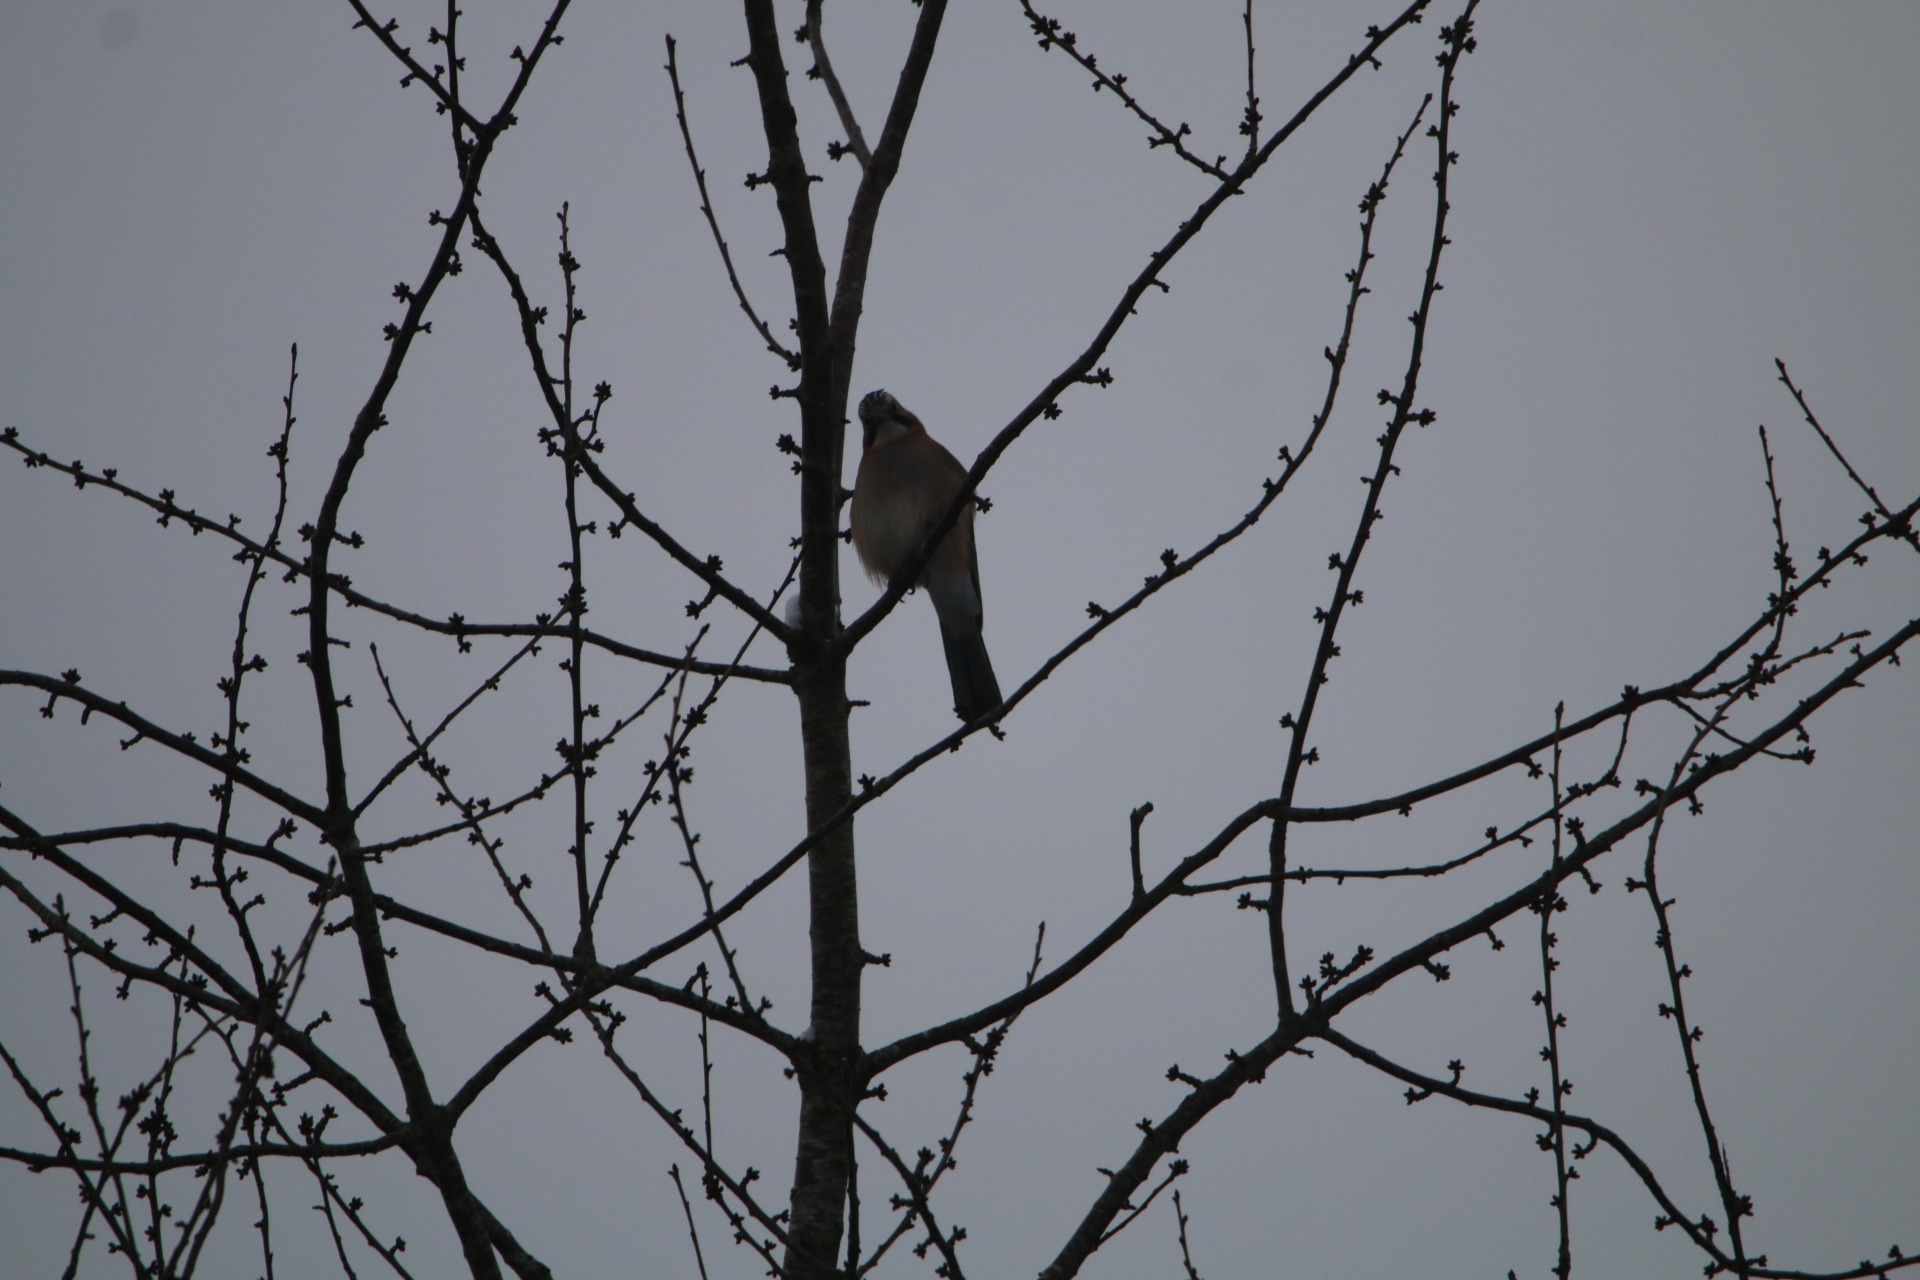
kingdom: Animalia
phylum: Chordata
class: Aves
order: Passeriformes
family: Corvidae
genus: Garrulus
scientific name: Garrulus glandarius
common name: Skovskade
